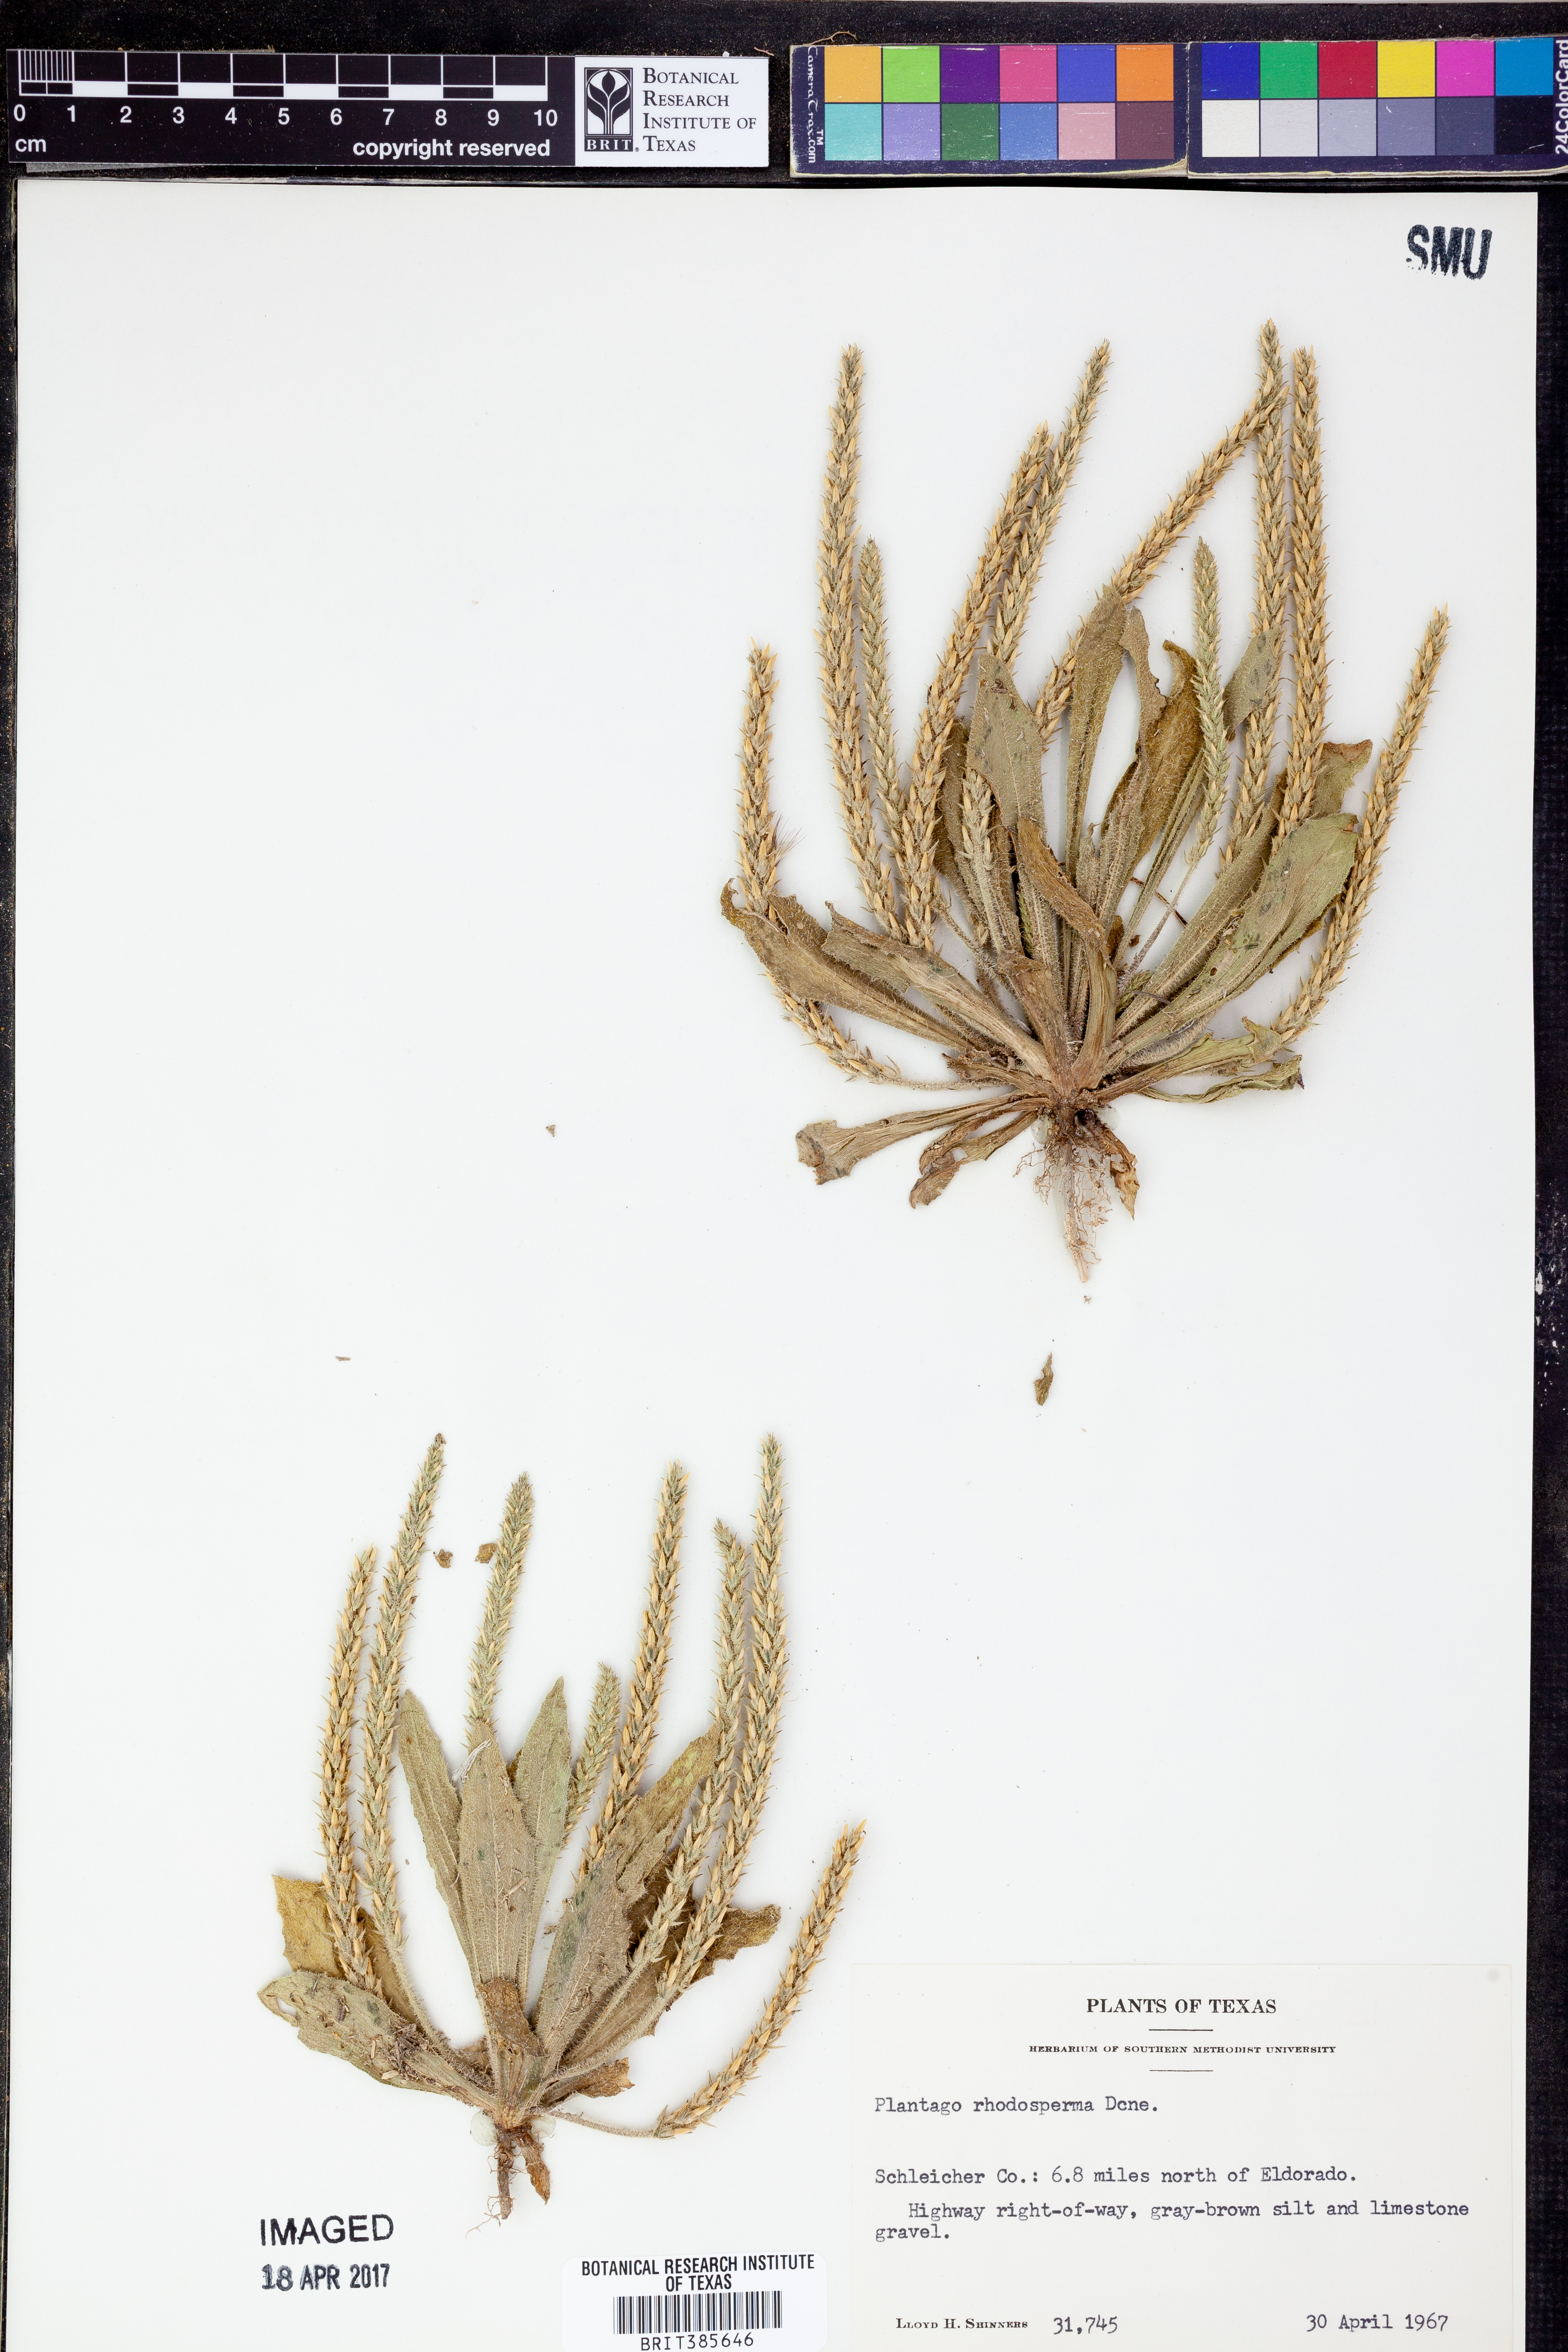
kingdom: Plantae
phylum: Tracheophyta
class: Magnoliopsida
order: Lamiales
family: Plantaginaceae
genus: Plantago
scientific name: Plantago rhodosperma
